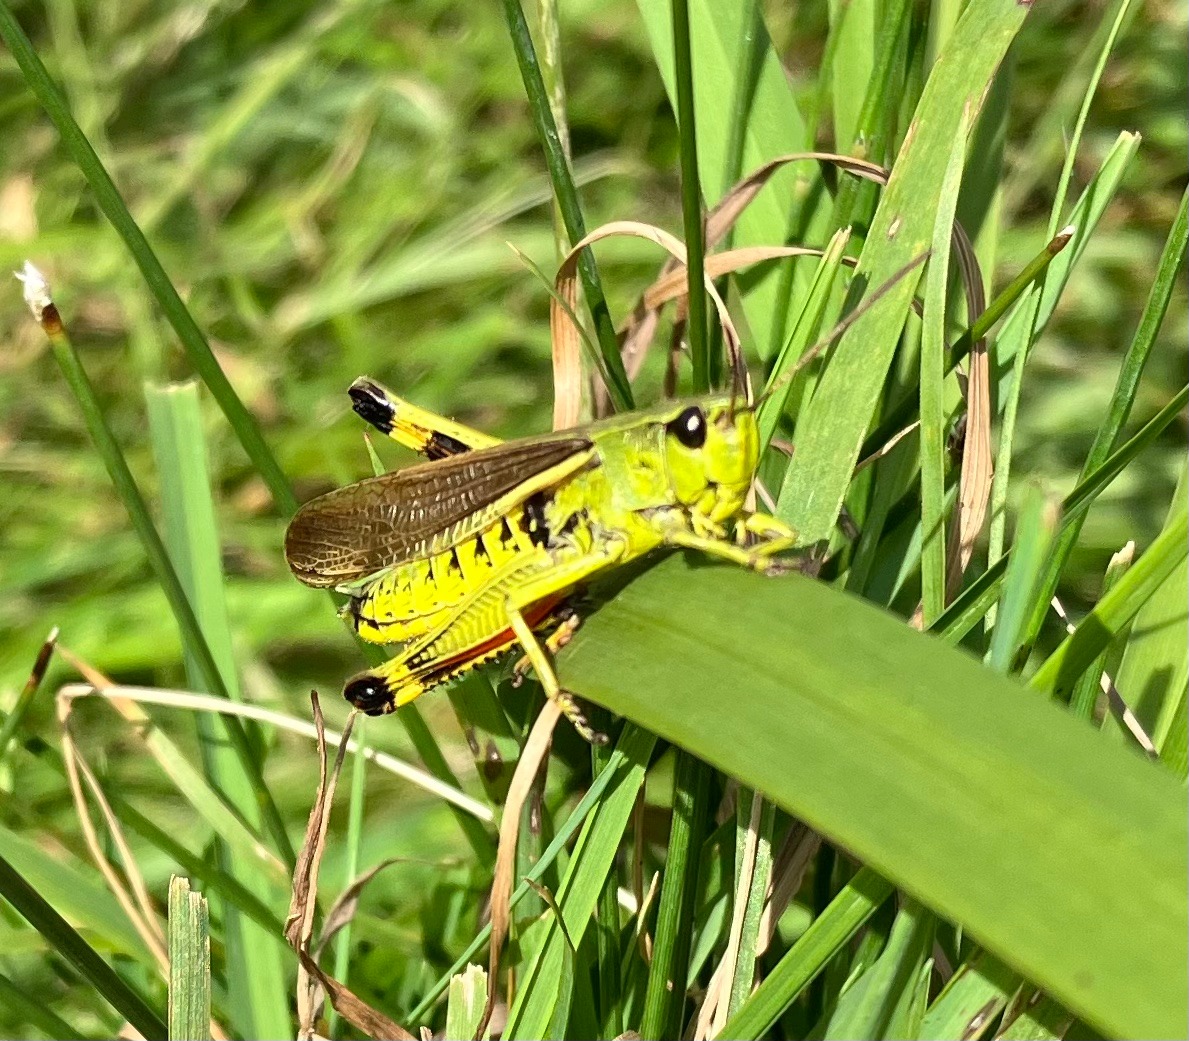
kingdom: Animalia
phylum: Arthropoda
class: Insecta
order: Orthoptera
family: Acrididae
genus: Stethophyma
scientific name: Stethophyma grossum
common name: Sumpgræshoppe
